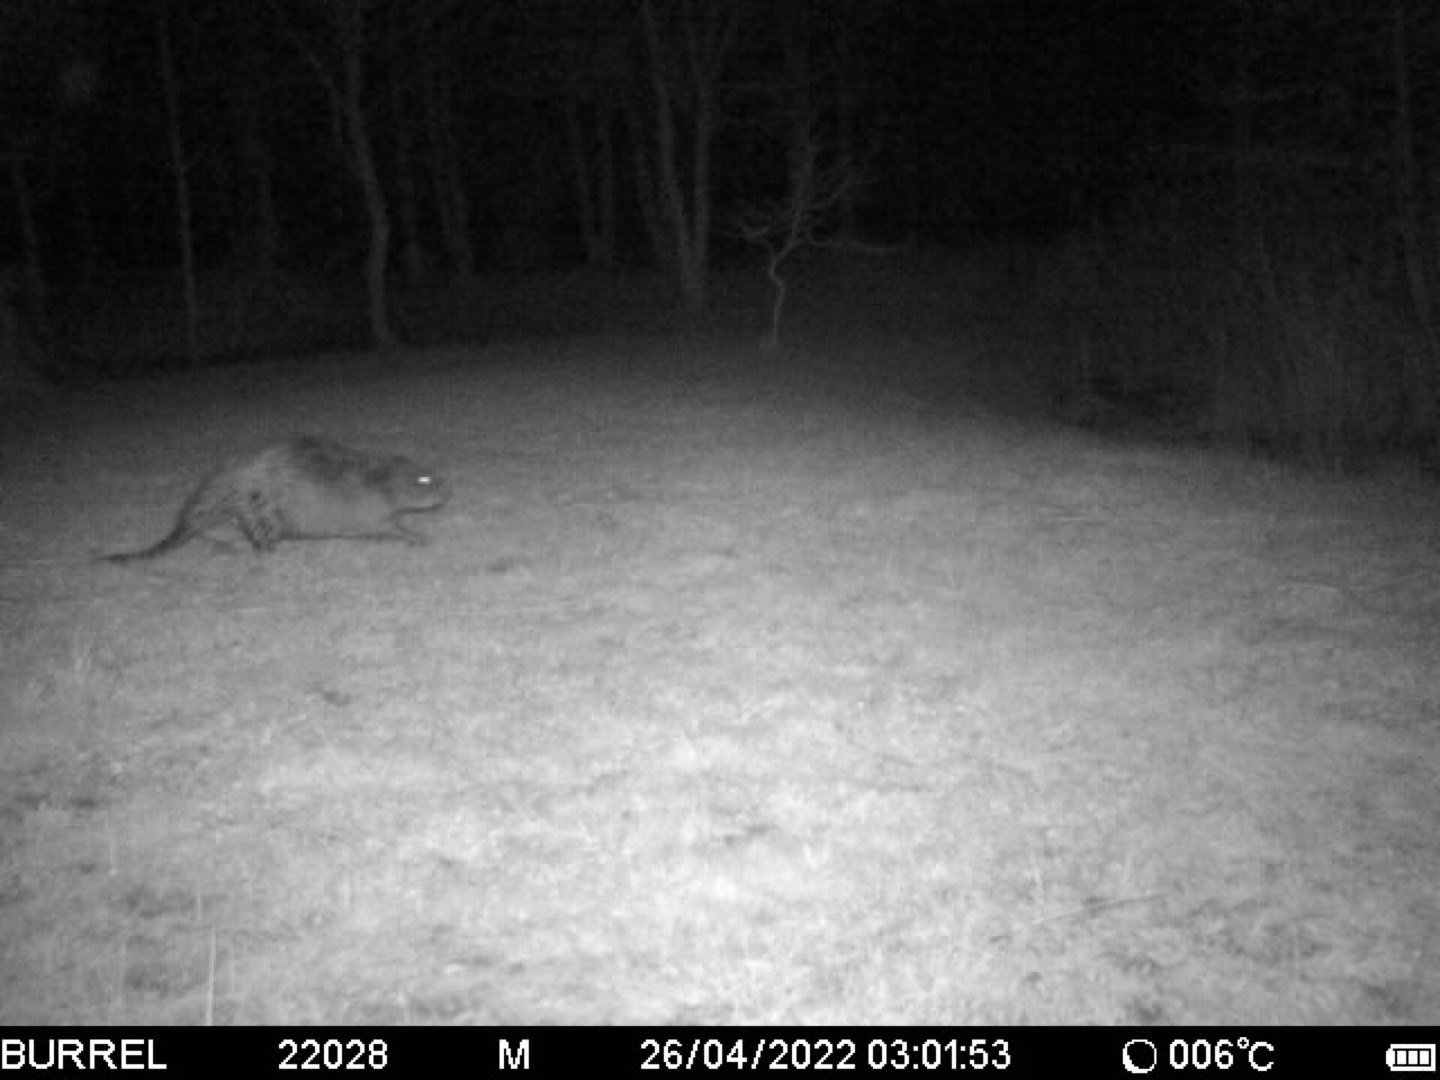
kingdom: Animalia
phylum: Chordata
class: Mammalia
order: Rodentia
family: Castoridae
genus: Castor
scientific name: Castor fiber
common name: Bæver
